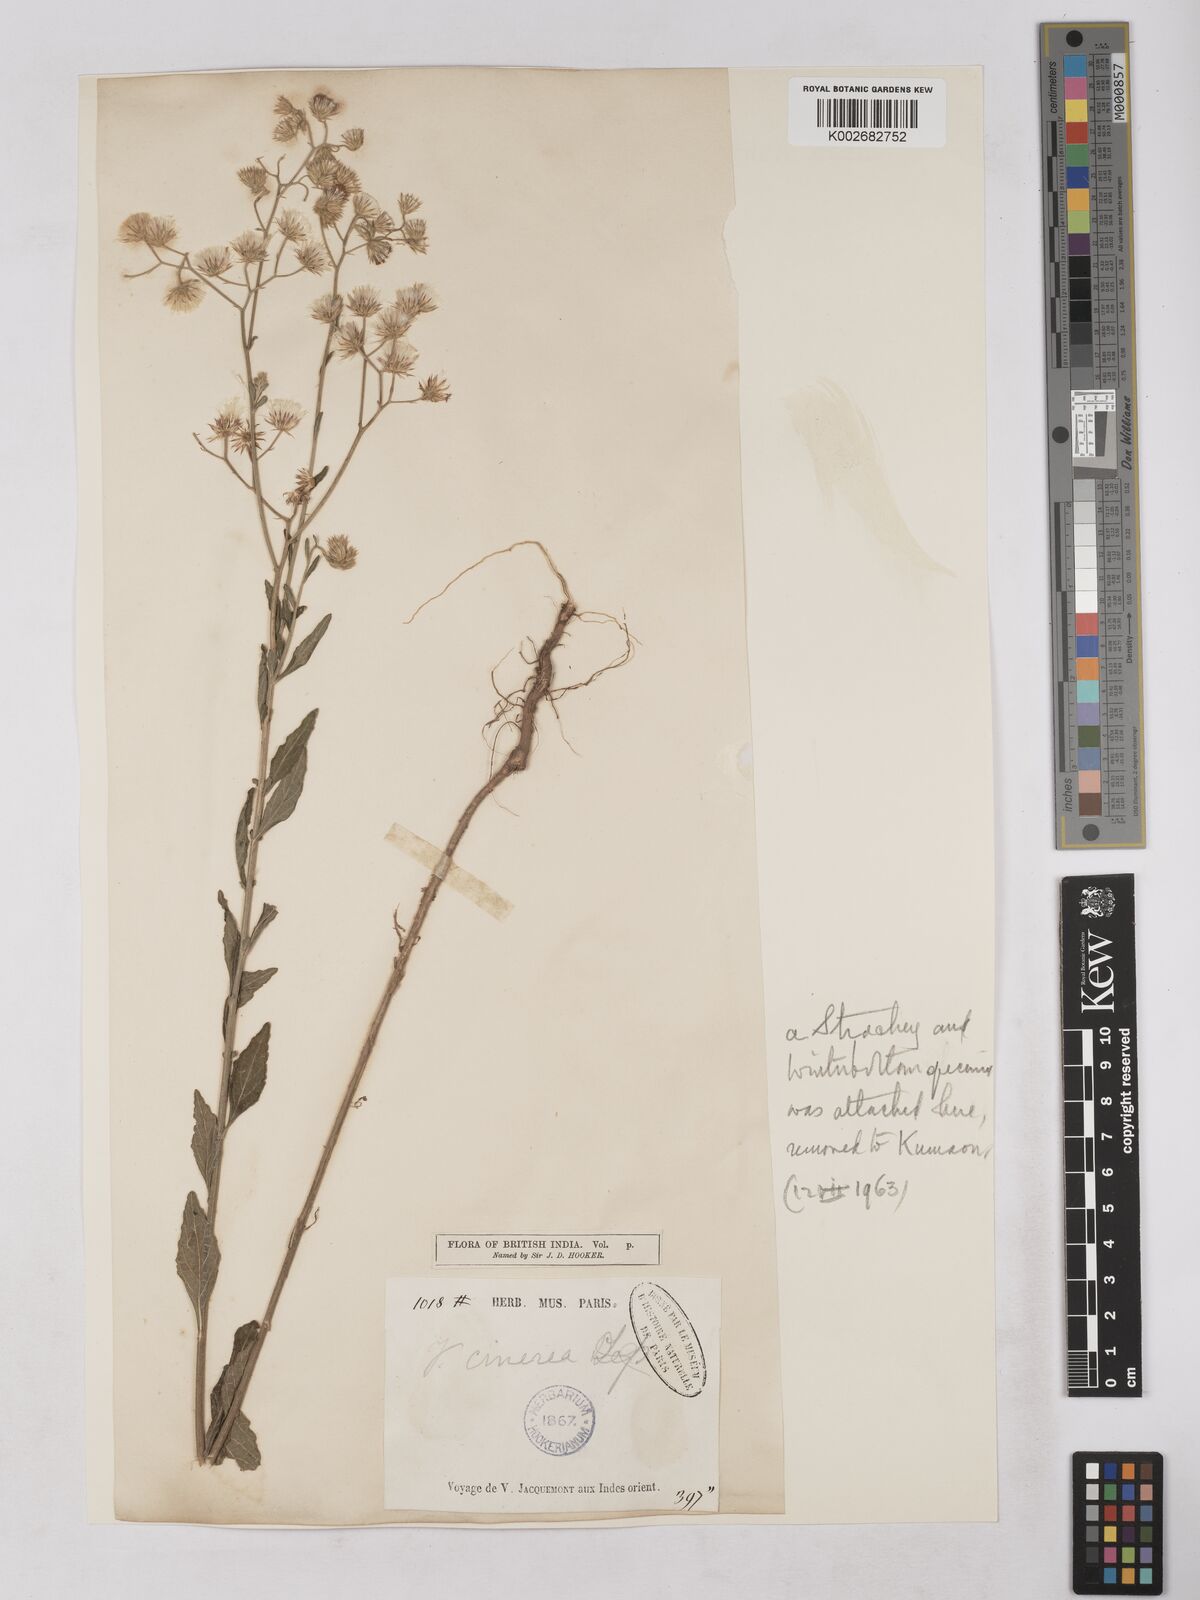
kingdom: Plantae
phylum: Tracheophyta
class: Magnoliopsida
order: Asterales
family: Asteraceae
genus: Cyanthillium
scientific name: Cyanthillium cinereum
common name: Little ironweed
